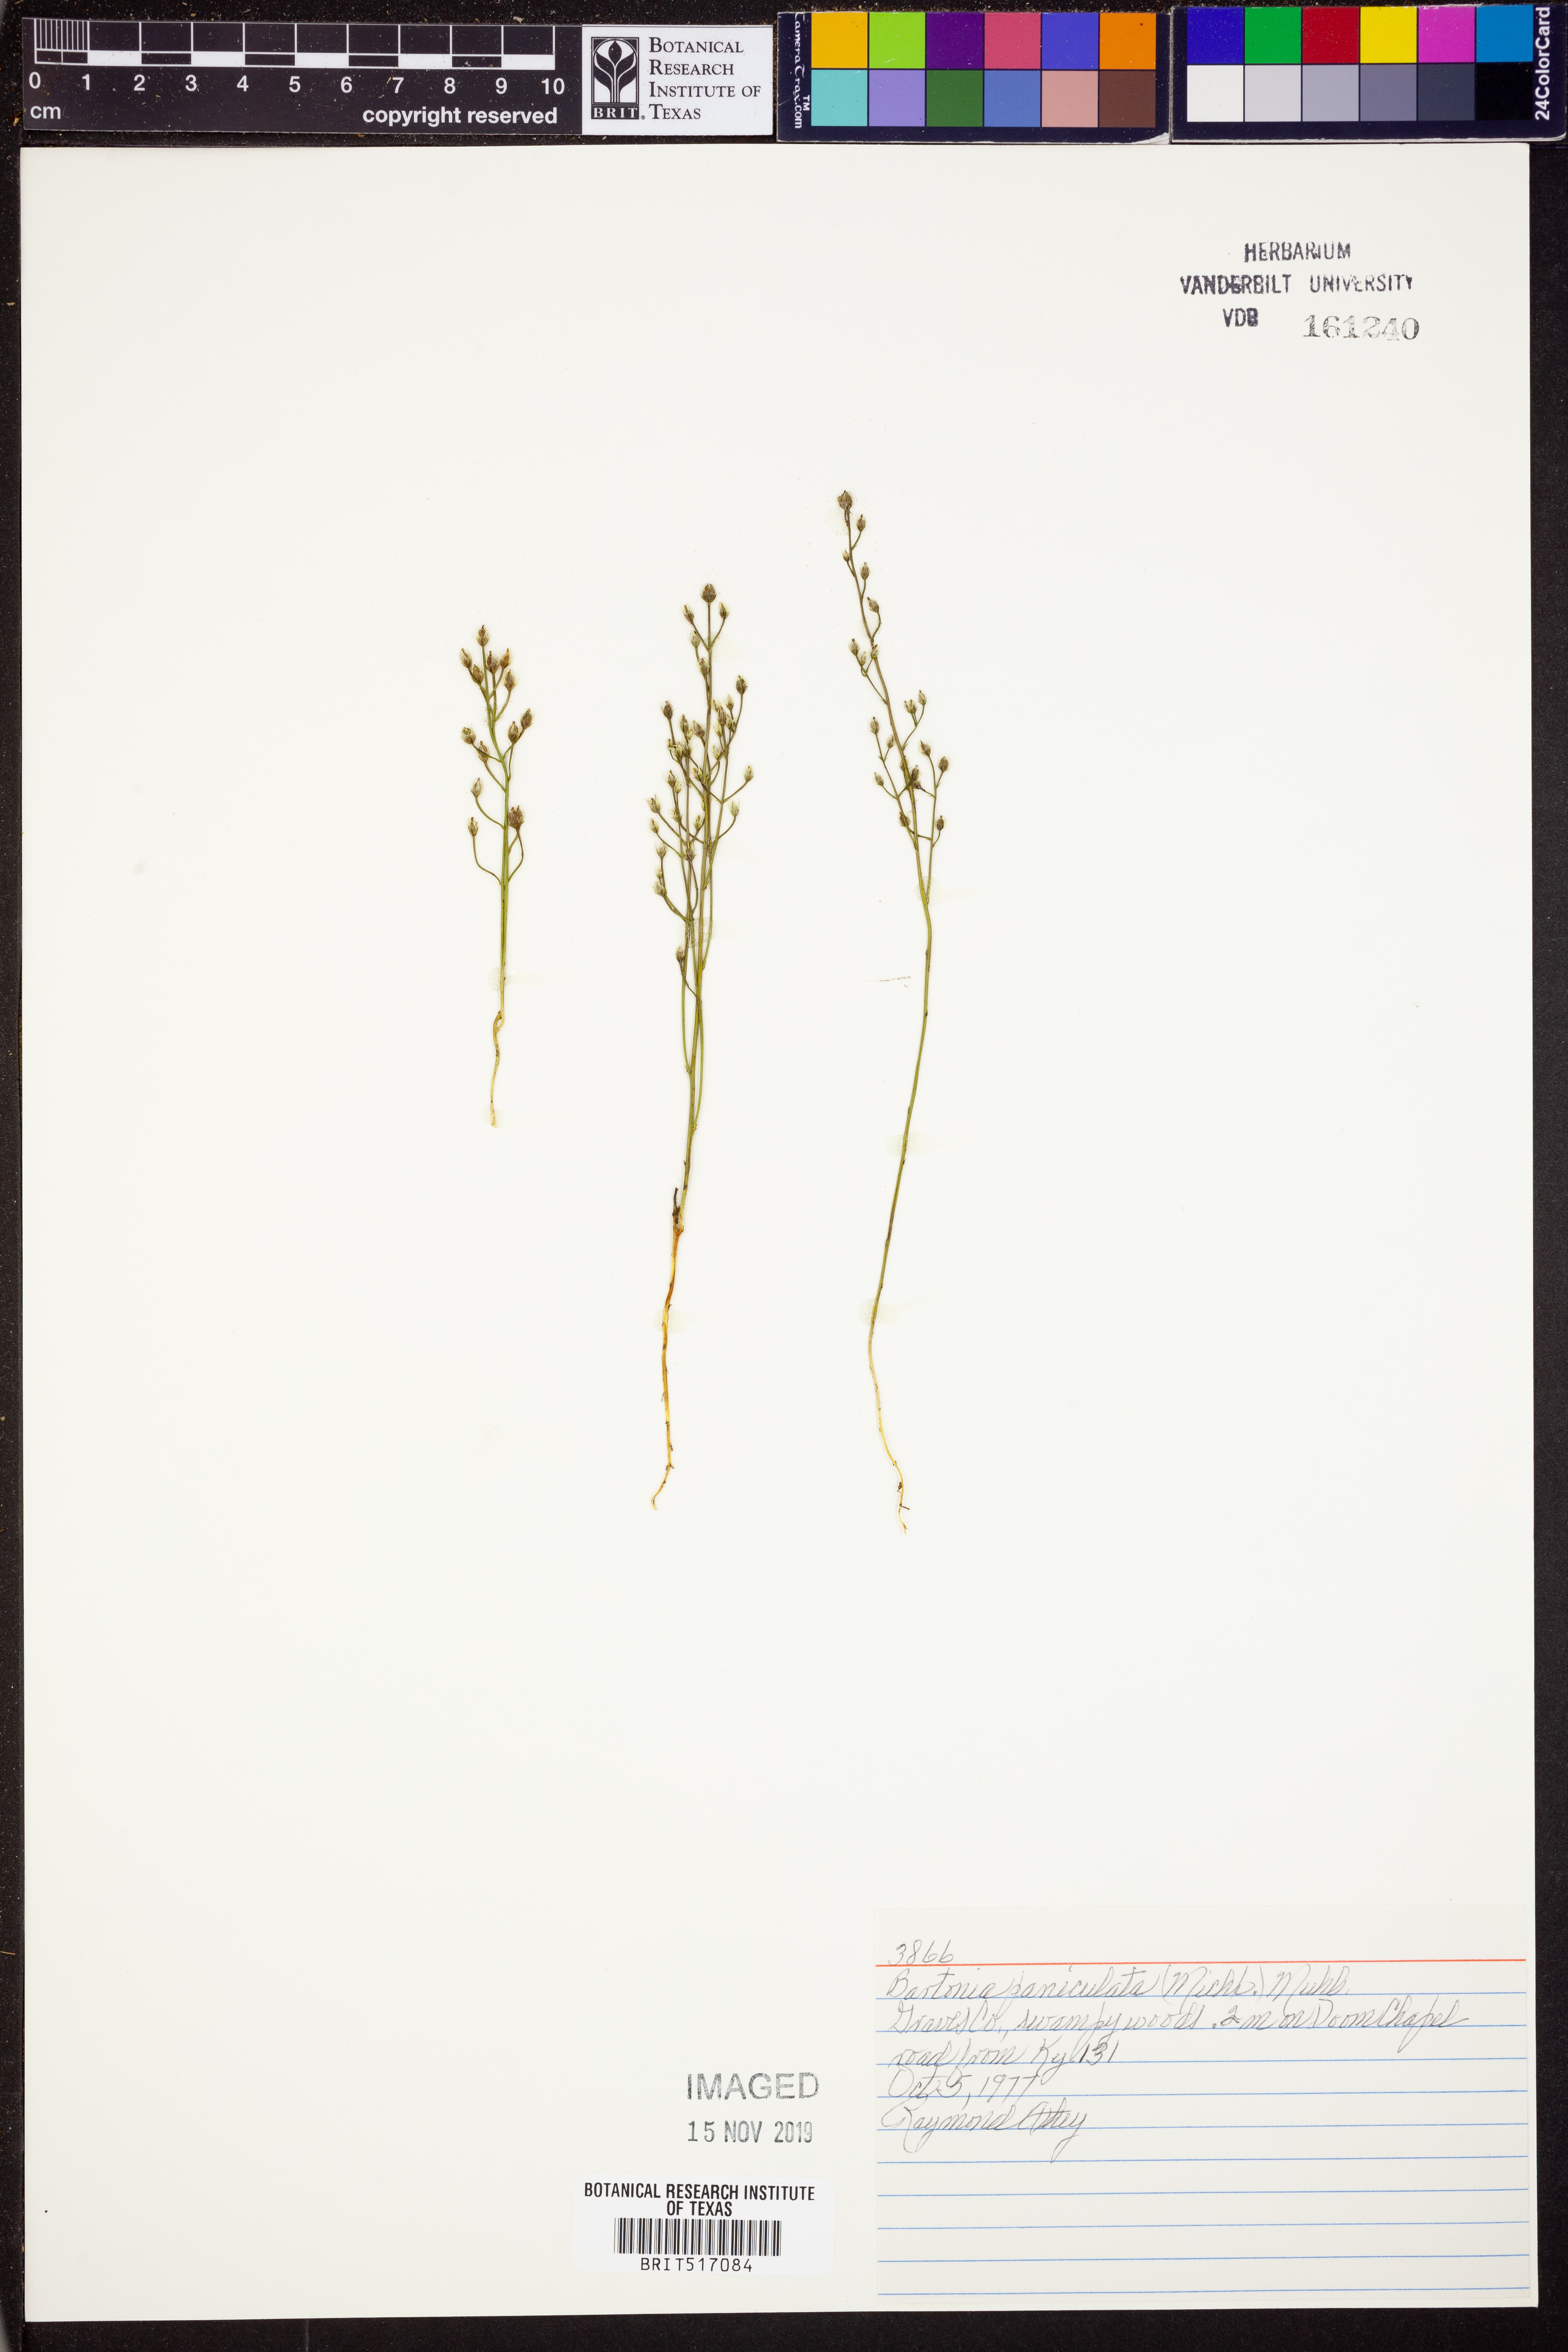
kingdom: Plantae
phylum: Tracheophyta
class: Magnoliopsida
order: Gentianales
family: Gentianaceae
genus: Bartonia
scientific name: Bartonia paniculata
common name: Branched bartonia
